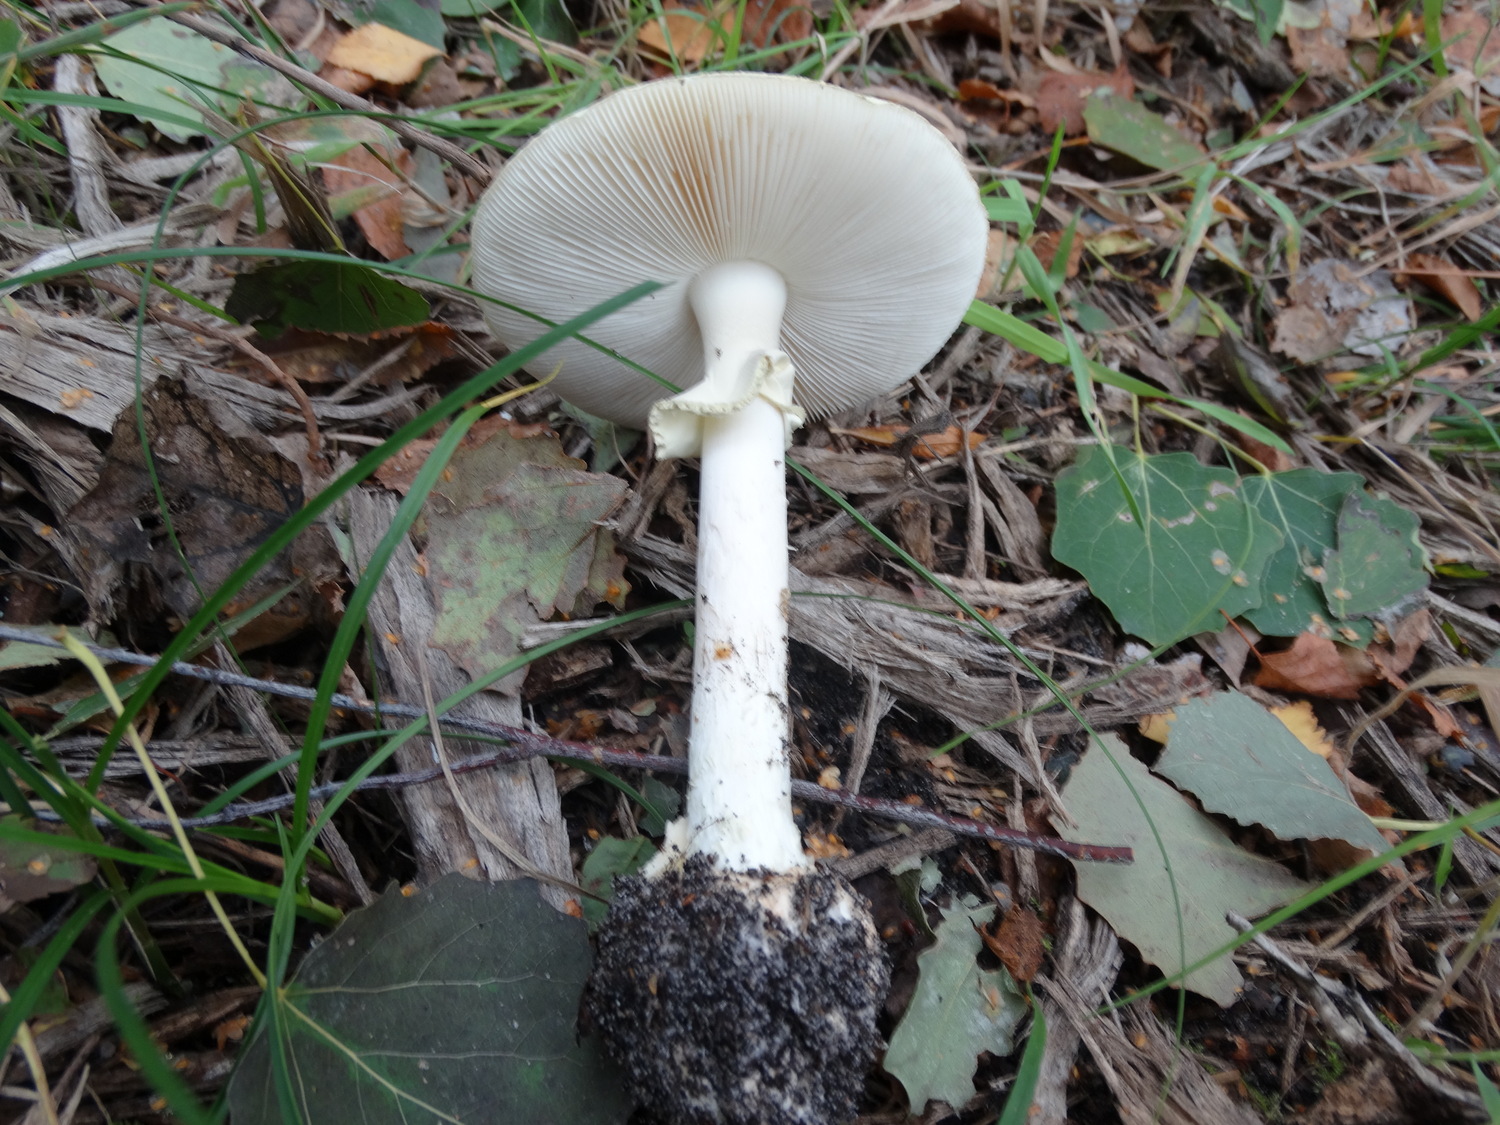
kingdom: Fungi
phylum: Basidiomycota
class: Agaricomycetes
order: Agaricales
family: Amanitaceae
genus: Amanita
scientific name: Amanita citrina
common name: kugleknoldet fluesvamp
